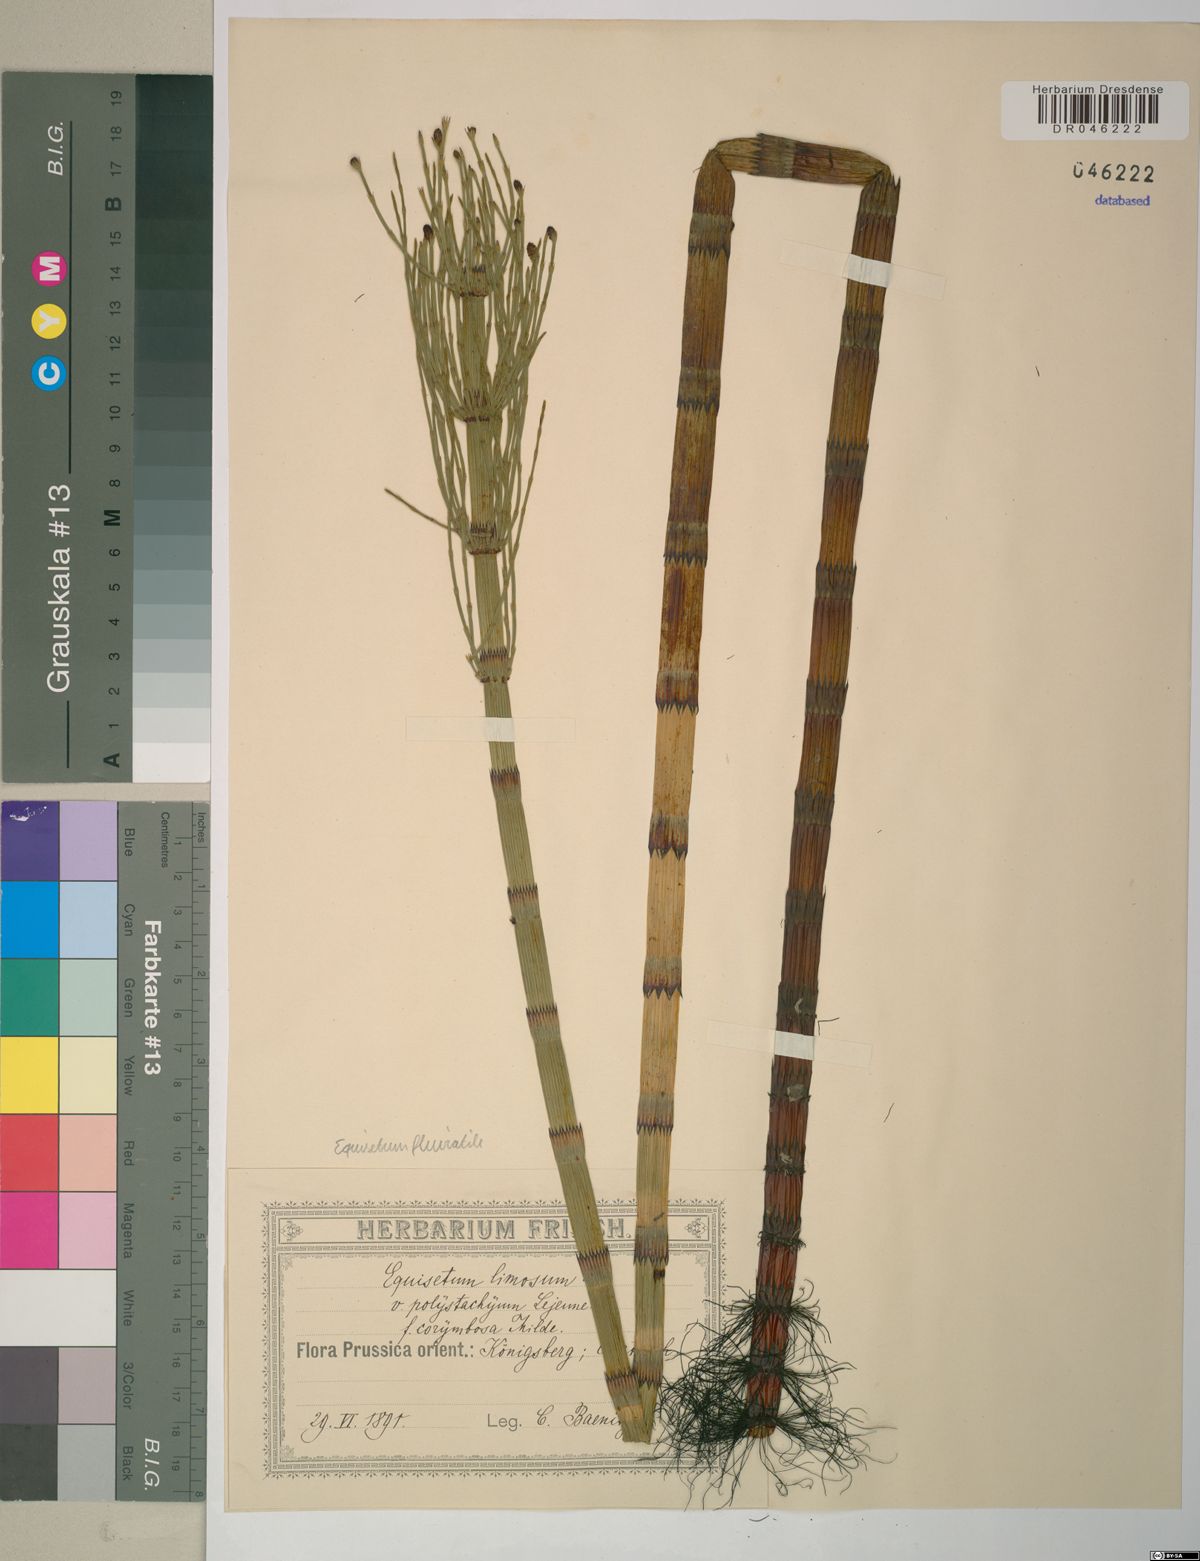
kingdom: Plantae
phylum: Tracheophyta
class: Polypodiopsida
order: Equisetales
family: Equisetaceae
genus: Equisetum
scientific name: Equisetum fluviatile
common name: Water horsetail
